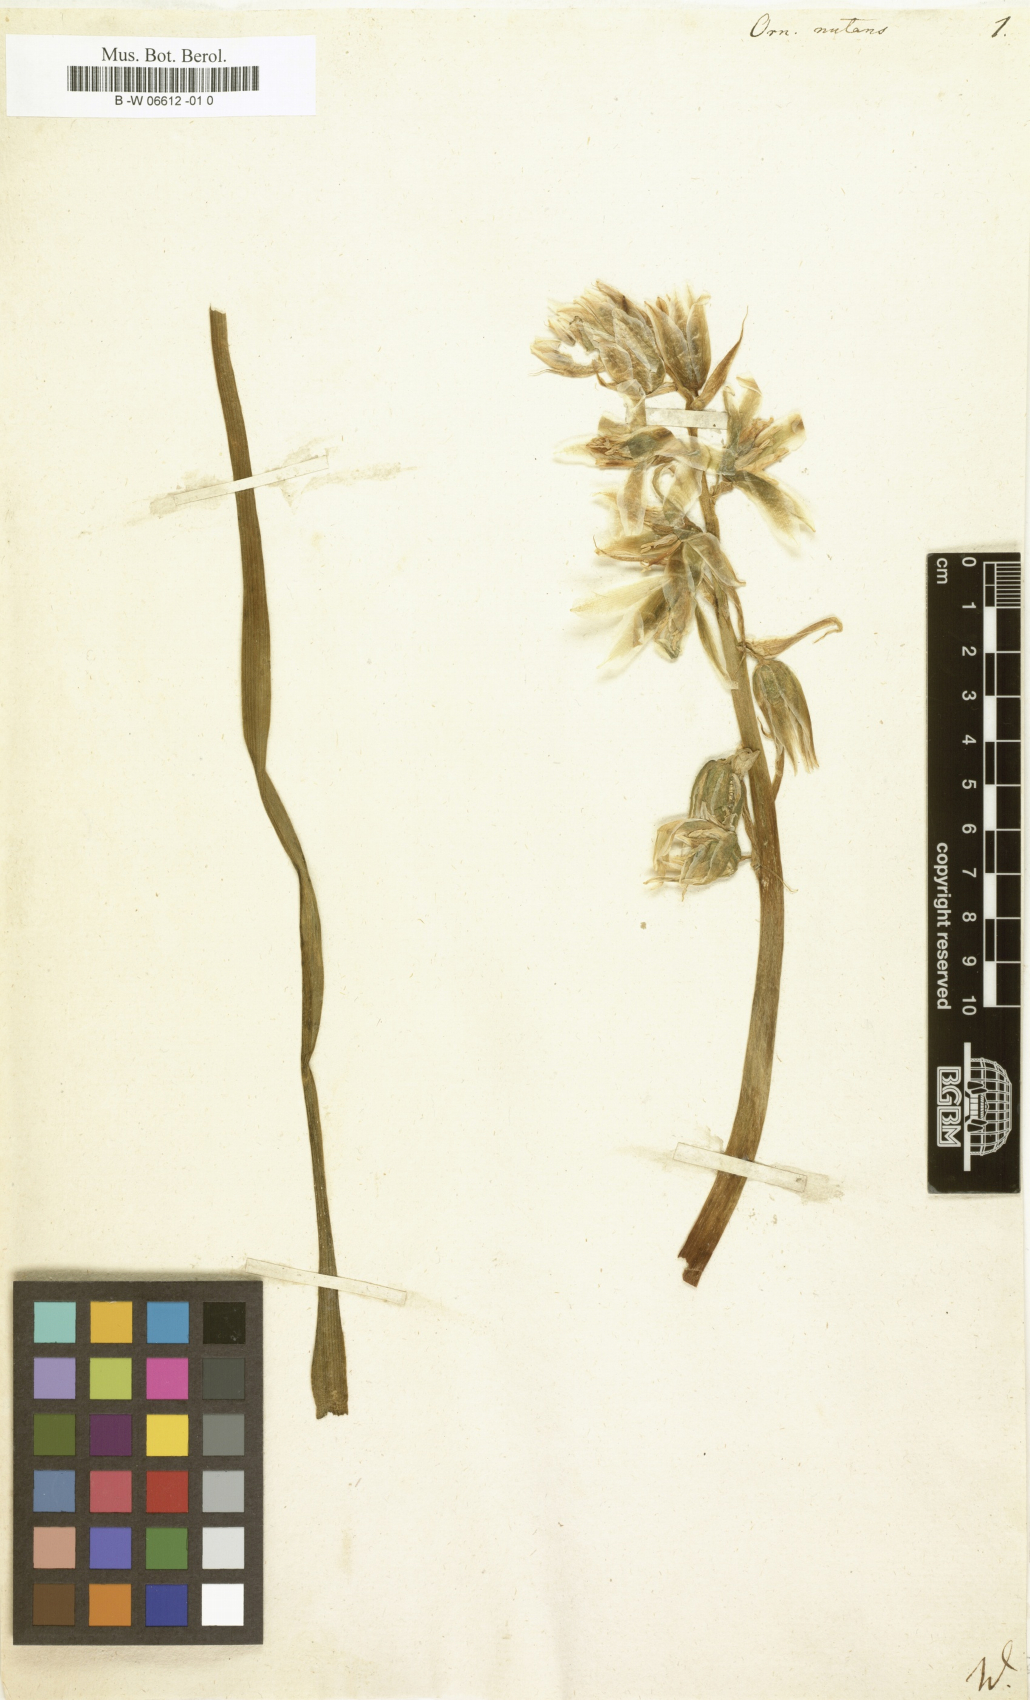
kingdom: Plantae
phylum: Tracheophyta
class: Liliopsida
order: Asparagales
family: Asparagaceae
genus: Ornithogalum
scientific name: Ornithogalum nutans
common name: Drooping star-of-bethlehem
